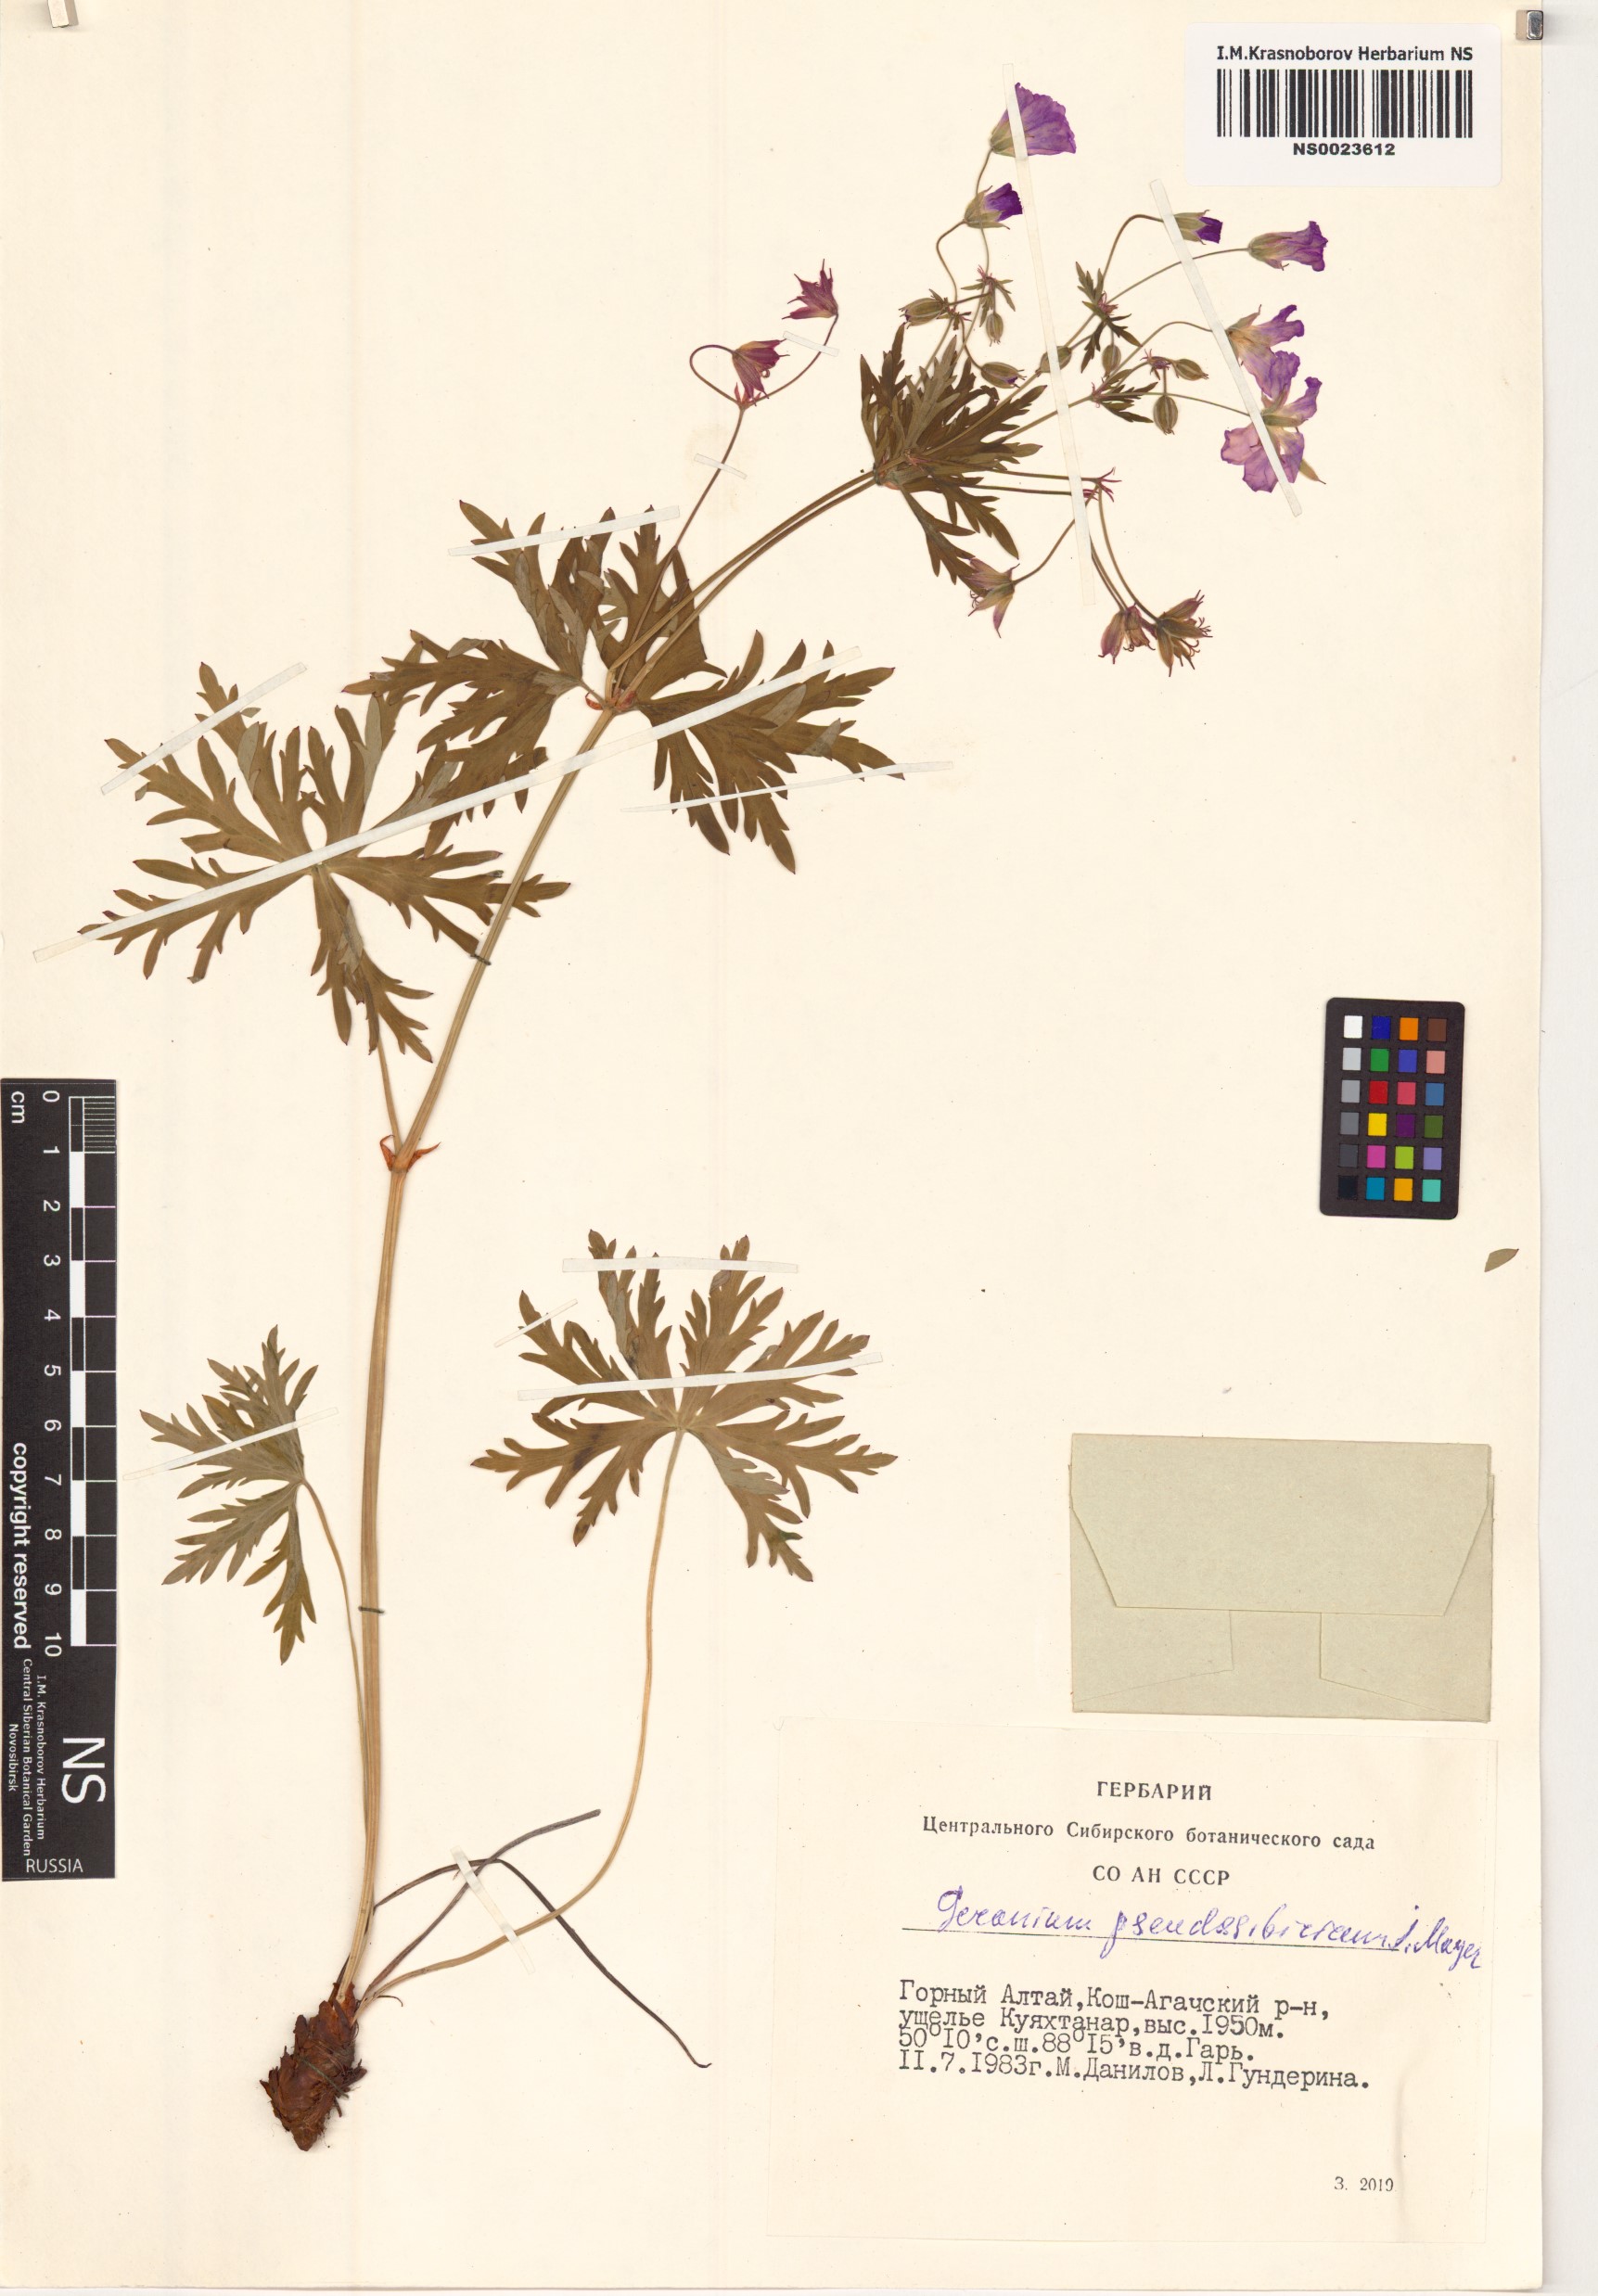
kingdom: Plantae
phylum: Tracheophyta
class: Magnoliopsida
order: Geraniales
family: Geraniaceae
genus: Geranium
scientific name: Geranium pseudosibiricum
